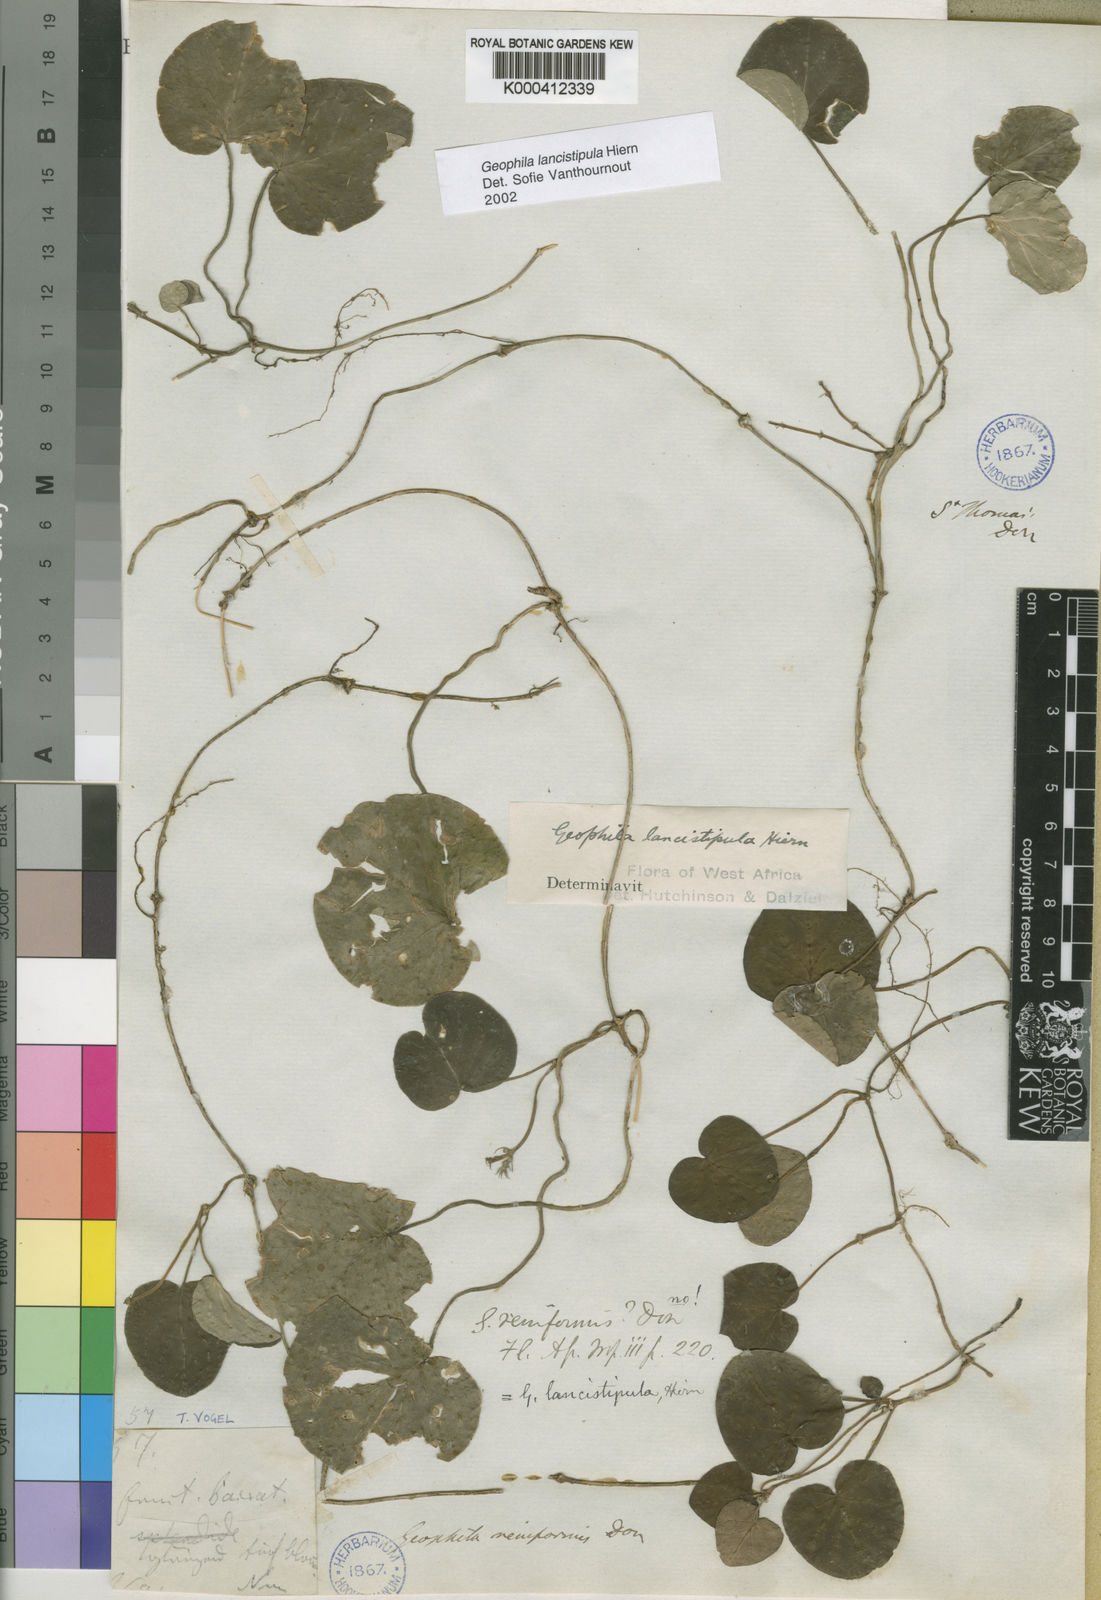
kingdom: Plantae
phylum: Tracheophyta
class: Magnoliopsida
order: Gentianales
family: Rubiaceae
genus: Geophila
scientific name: Geophila lancistipula
